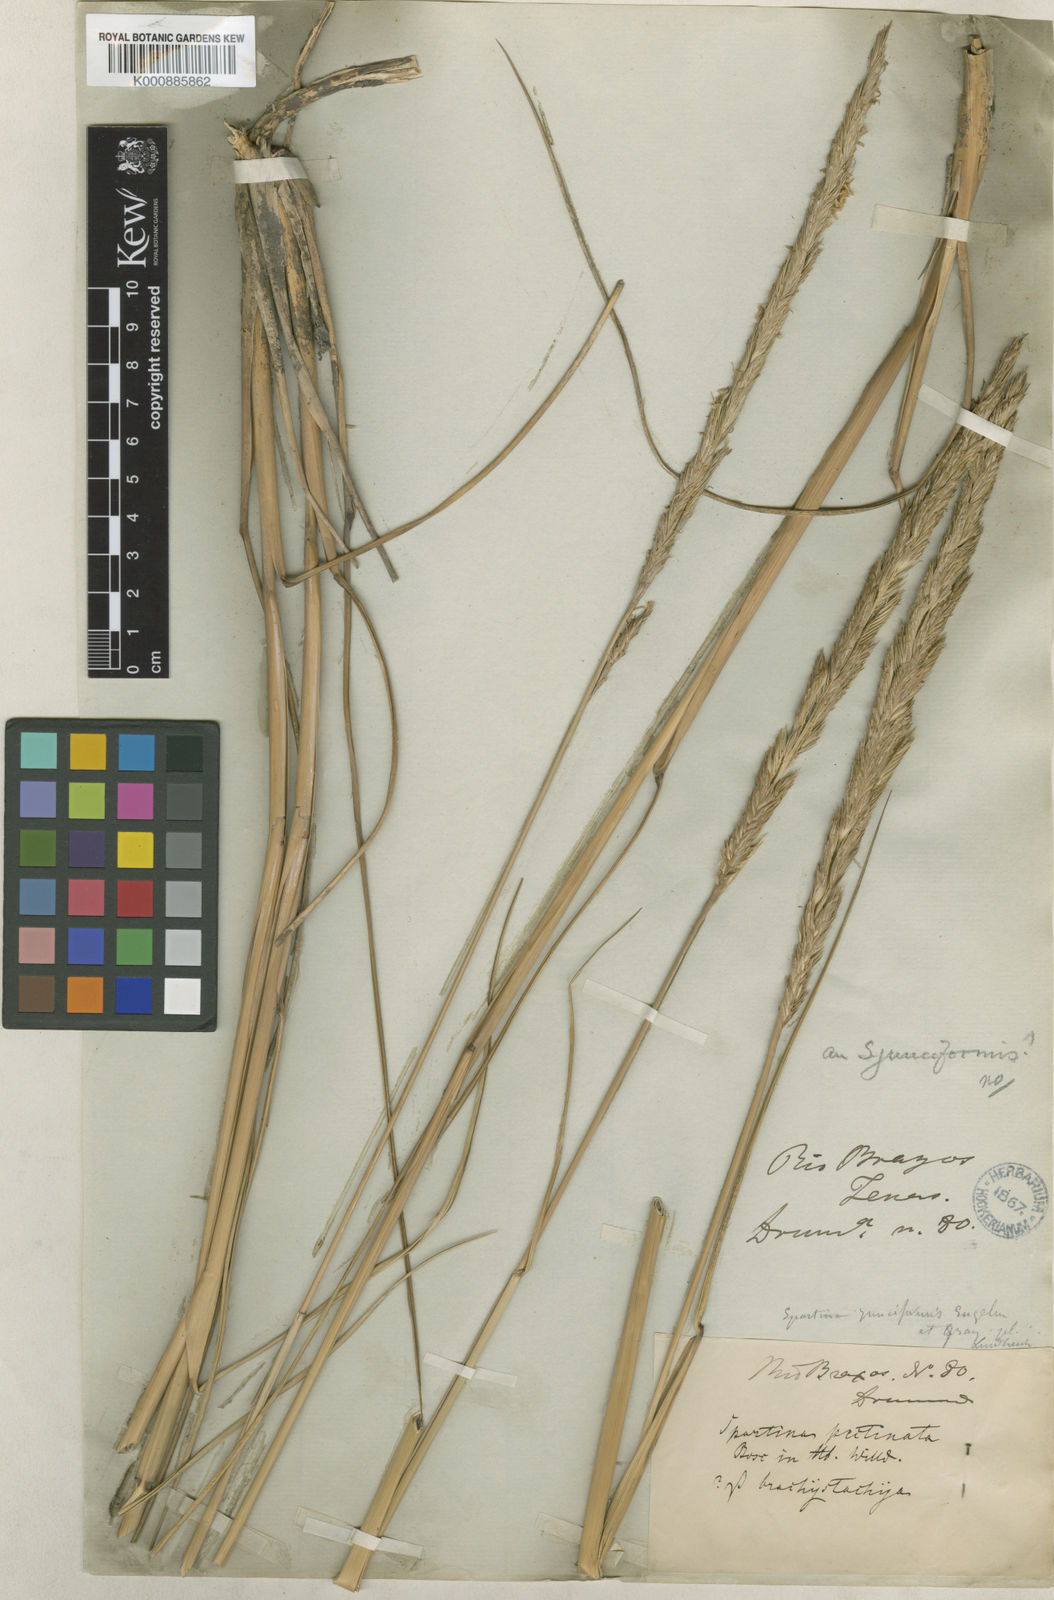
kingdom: Animalia
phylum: Mollusca
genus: Spartina
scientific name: Spartina
